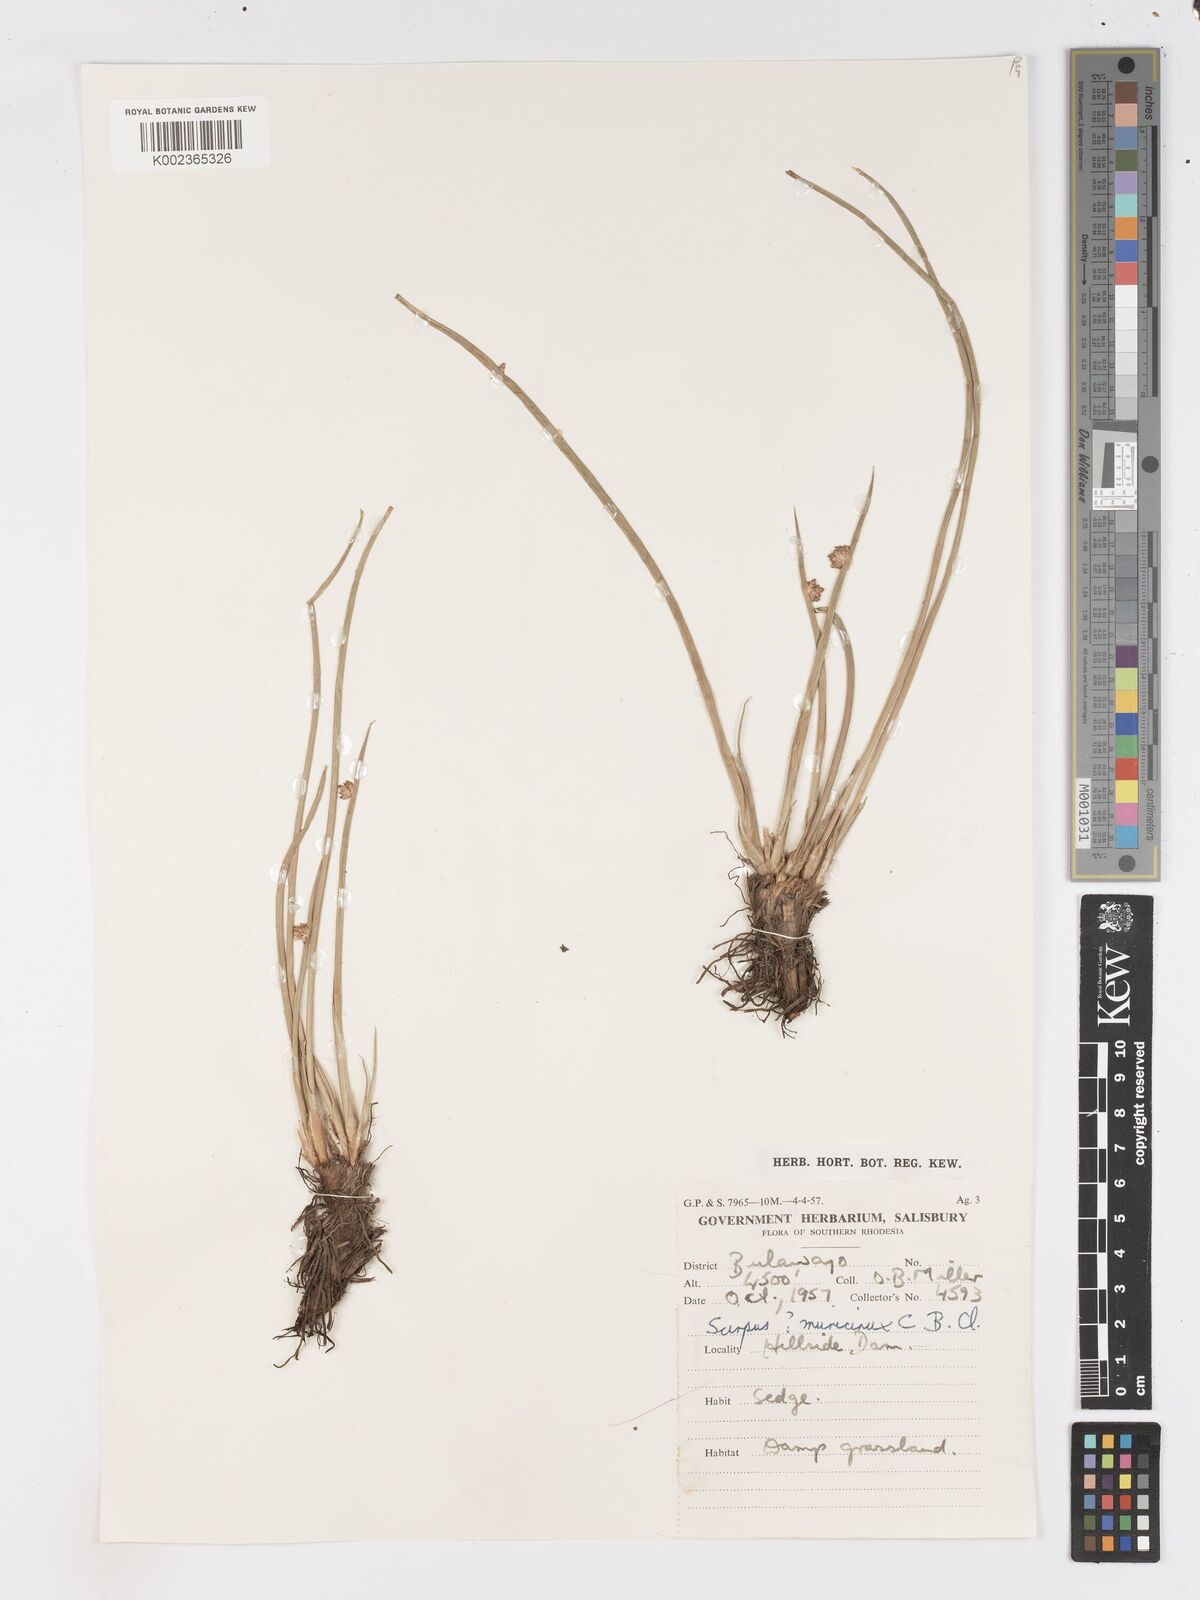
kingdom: Plantae
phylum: Tracheophyta
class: Liliopsida
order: Poales
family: Cyperaceae
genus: Schoenoplectus
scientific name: Schoenoplectus
